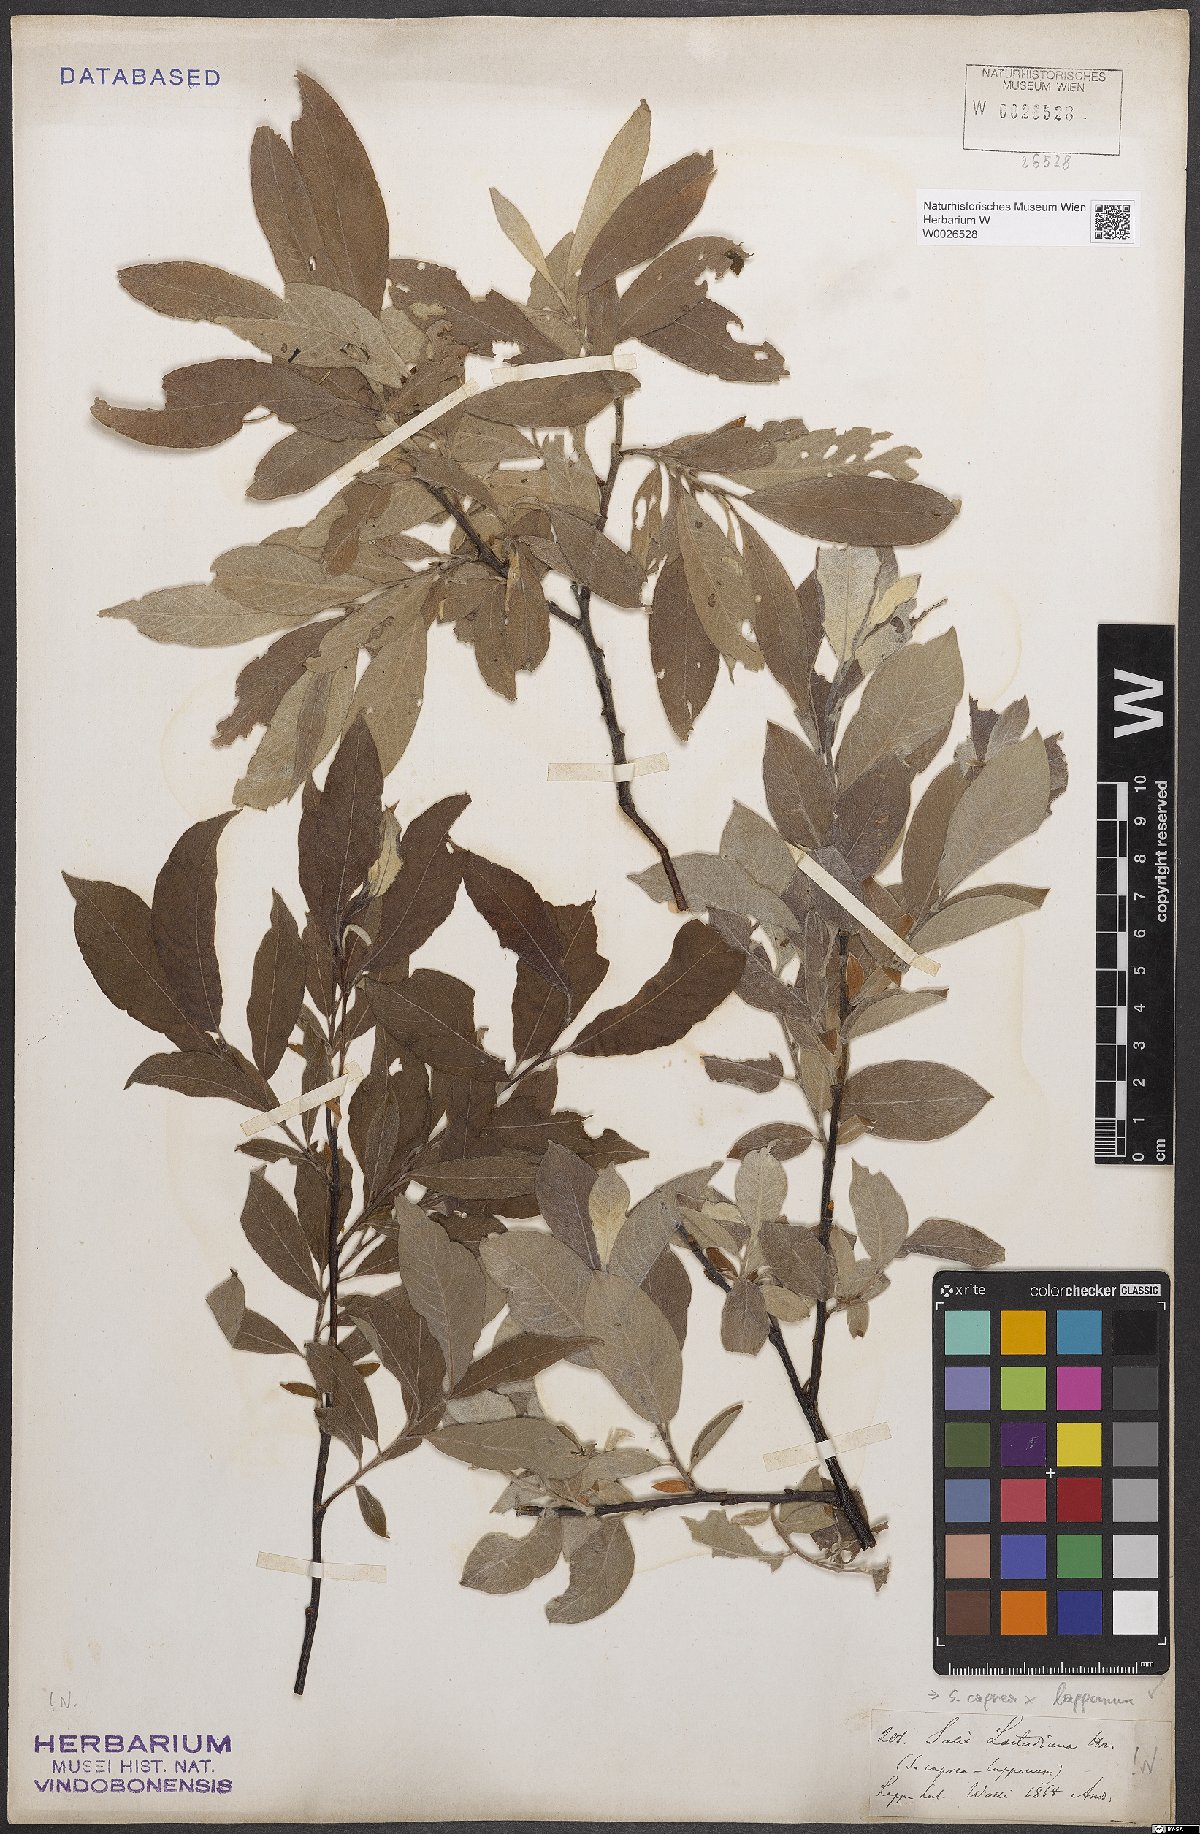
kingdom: Plantae
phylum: Tracheophyta
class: Magnoliopsida
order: Malpighiales
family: Salicaceae
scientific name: Salicaceae
